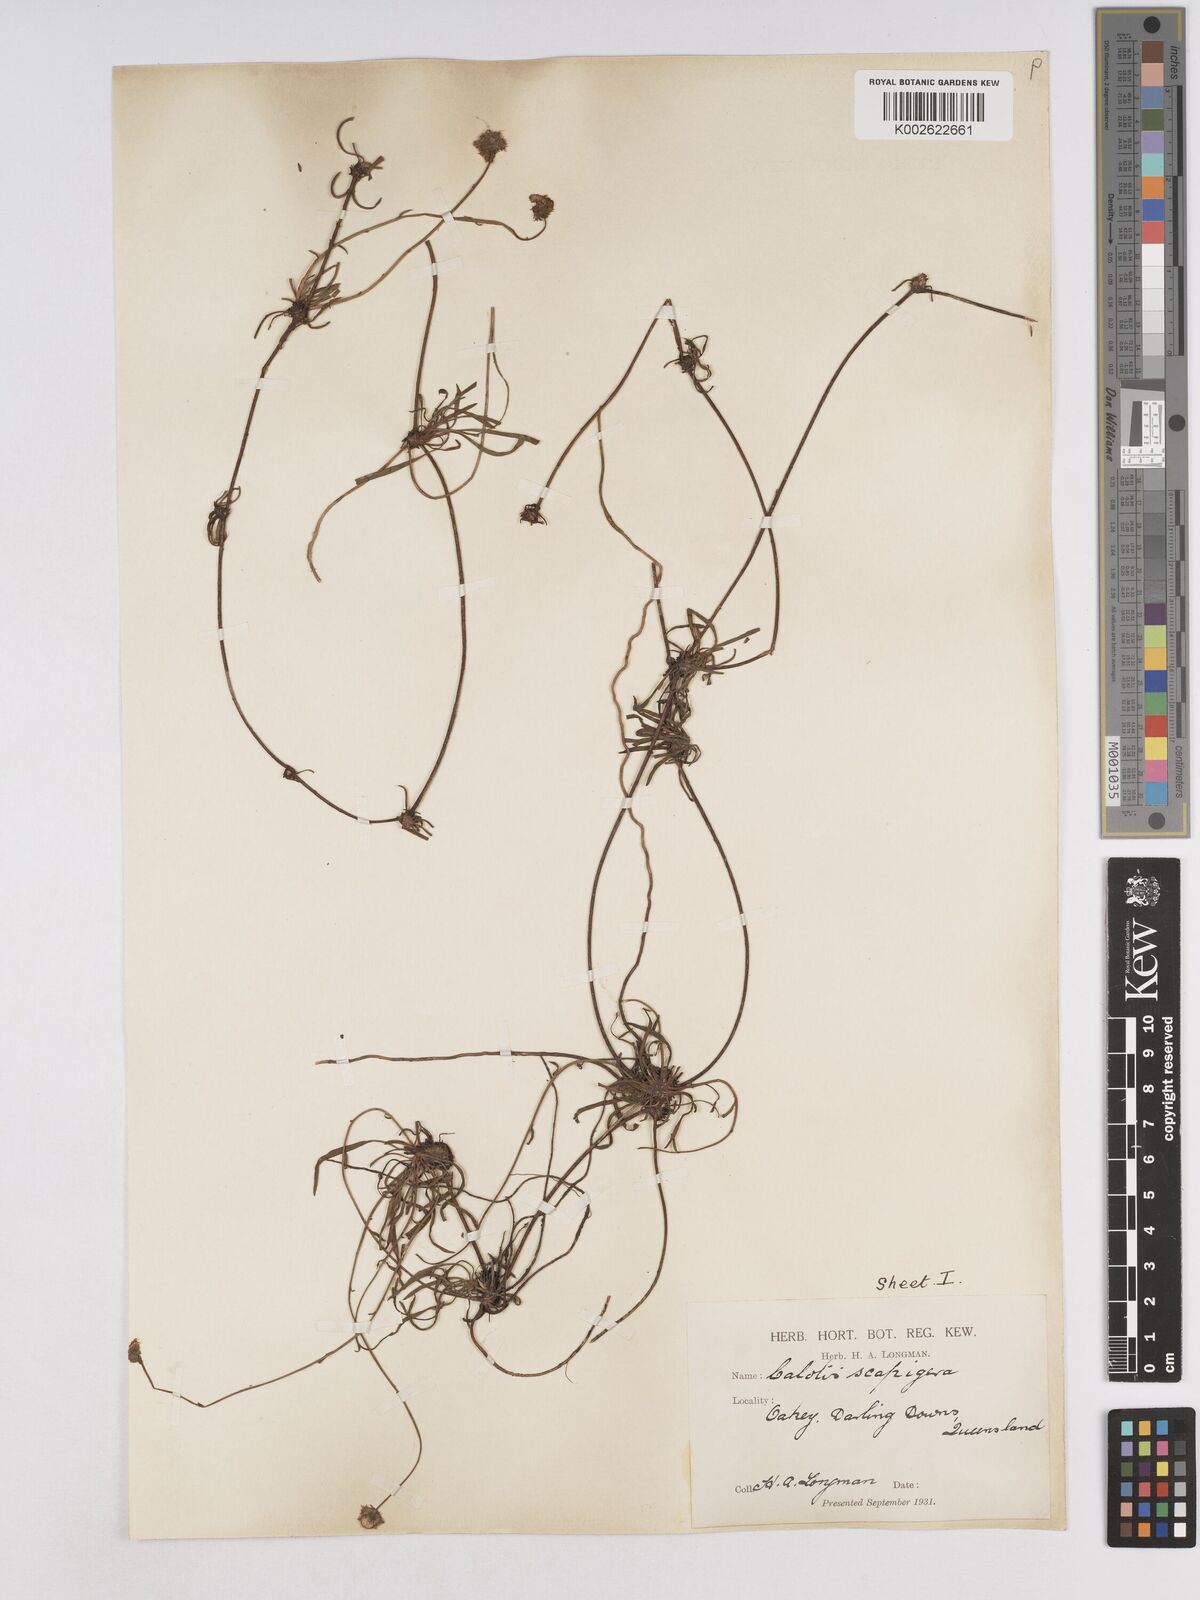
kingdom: Plantae
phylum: Tracheophyta
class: Magnoliopsida
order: Asterales
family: Asteraceae
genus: Calotis
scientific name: Calotis scapigera
